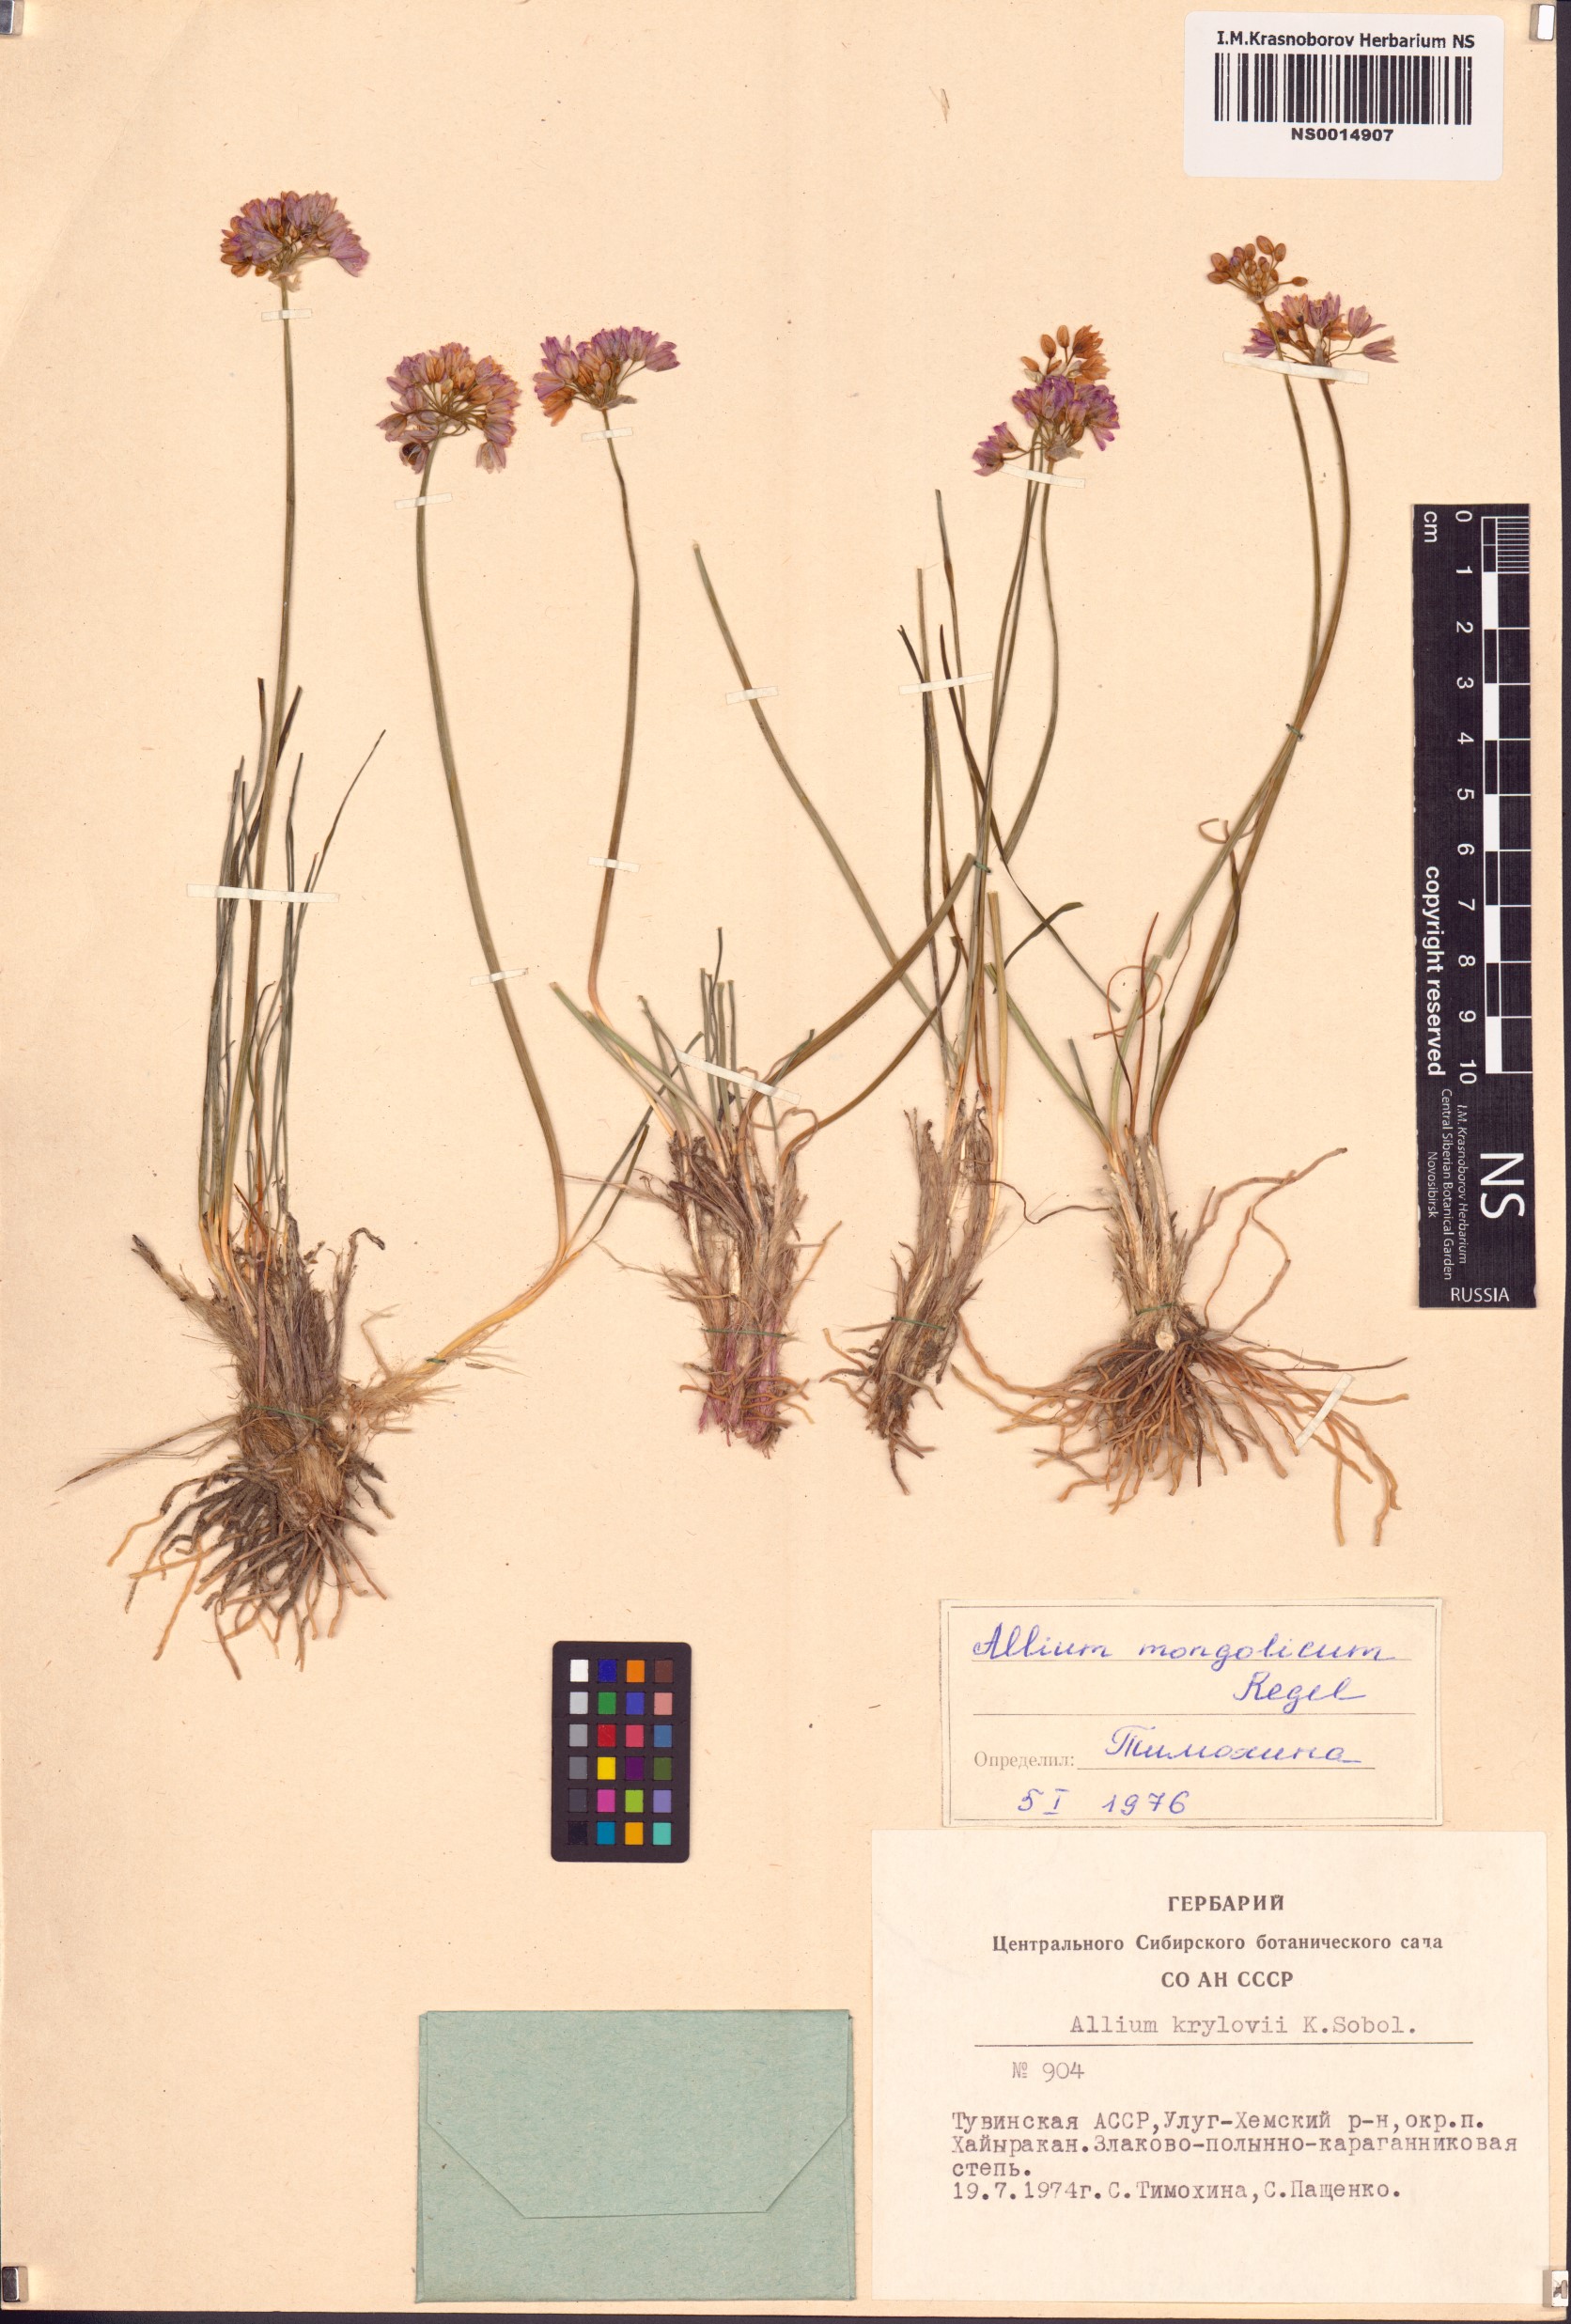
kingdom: Plantae
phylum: Tracheophyta
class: Liliopsida
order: Asparagales
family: Amaryllidaceae
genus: Allium
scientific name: Allium mongolicum
